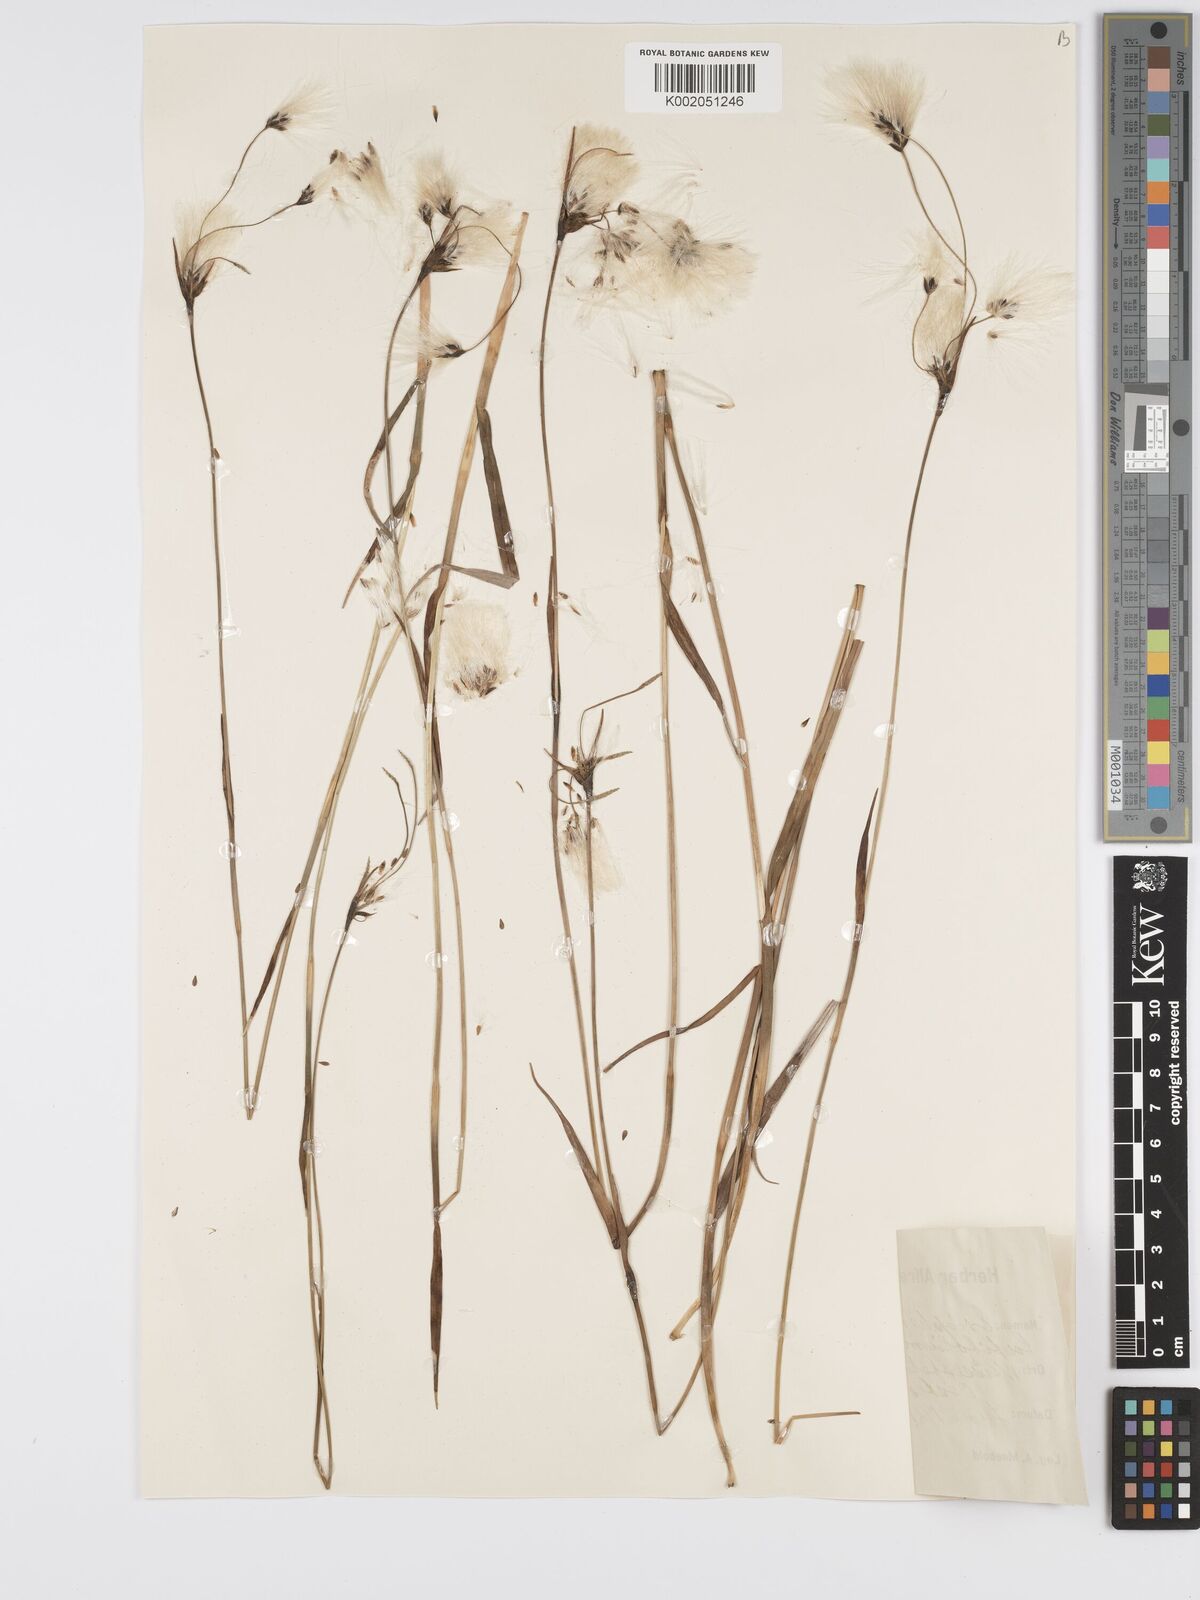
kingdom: Plantae
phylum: Tracheophyta
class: Liliopsida
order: Poales
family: Cyperaceae
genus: Eriophorum
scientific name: Eriophorum latifolium
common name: Broad-leaved cottongrass
